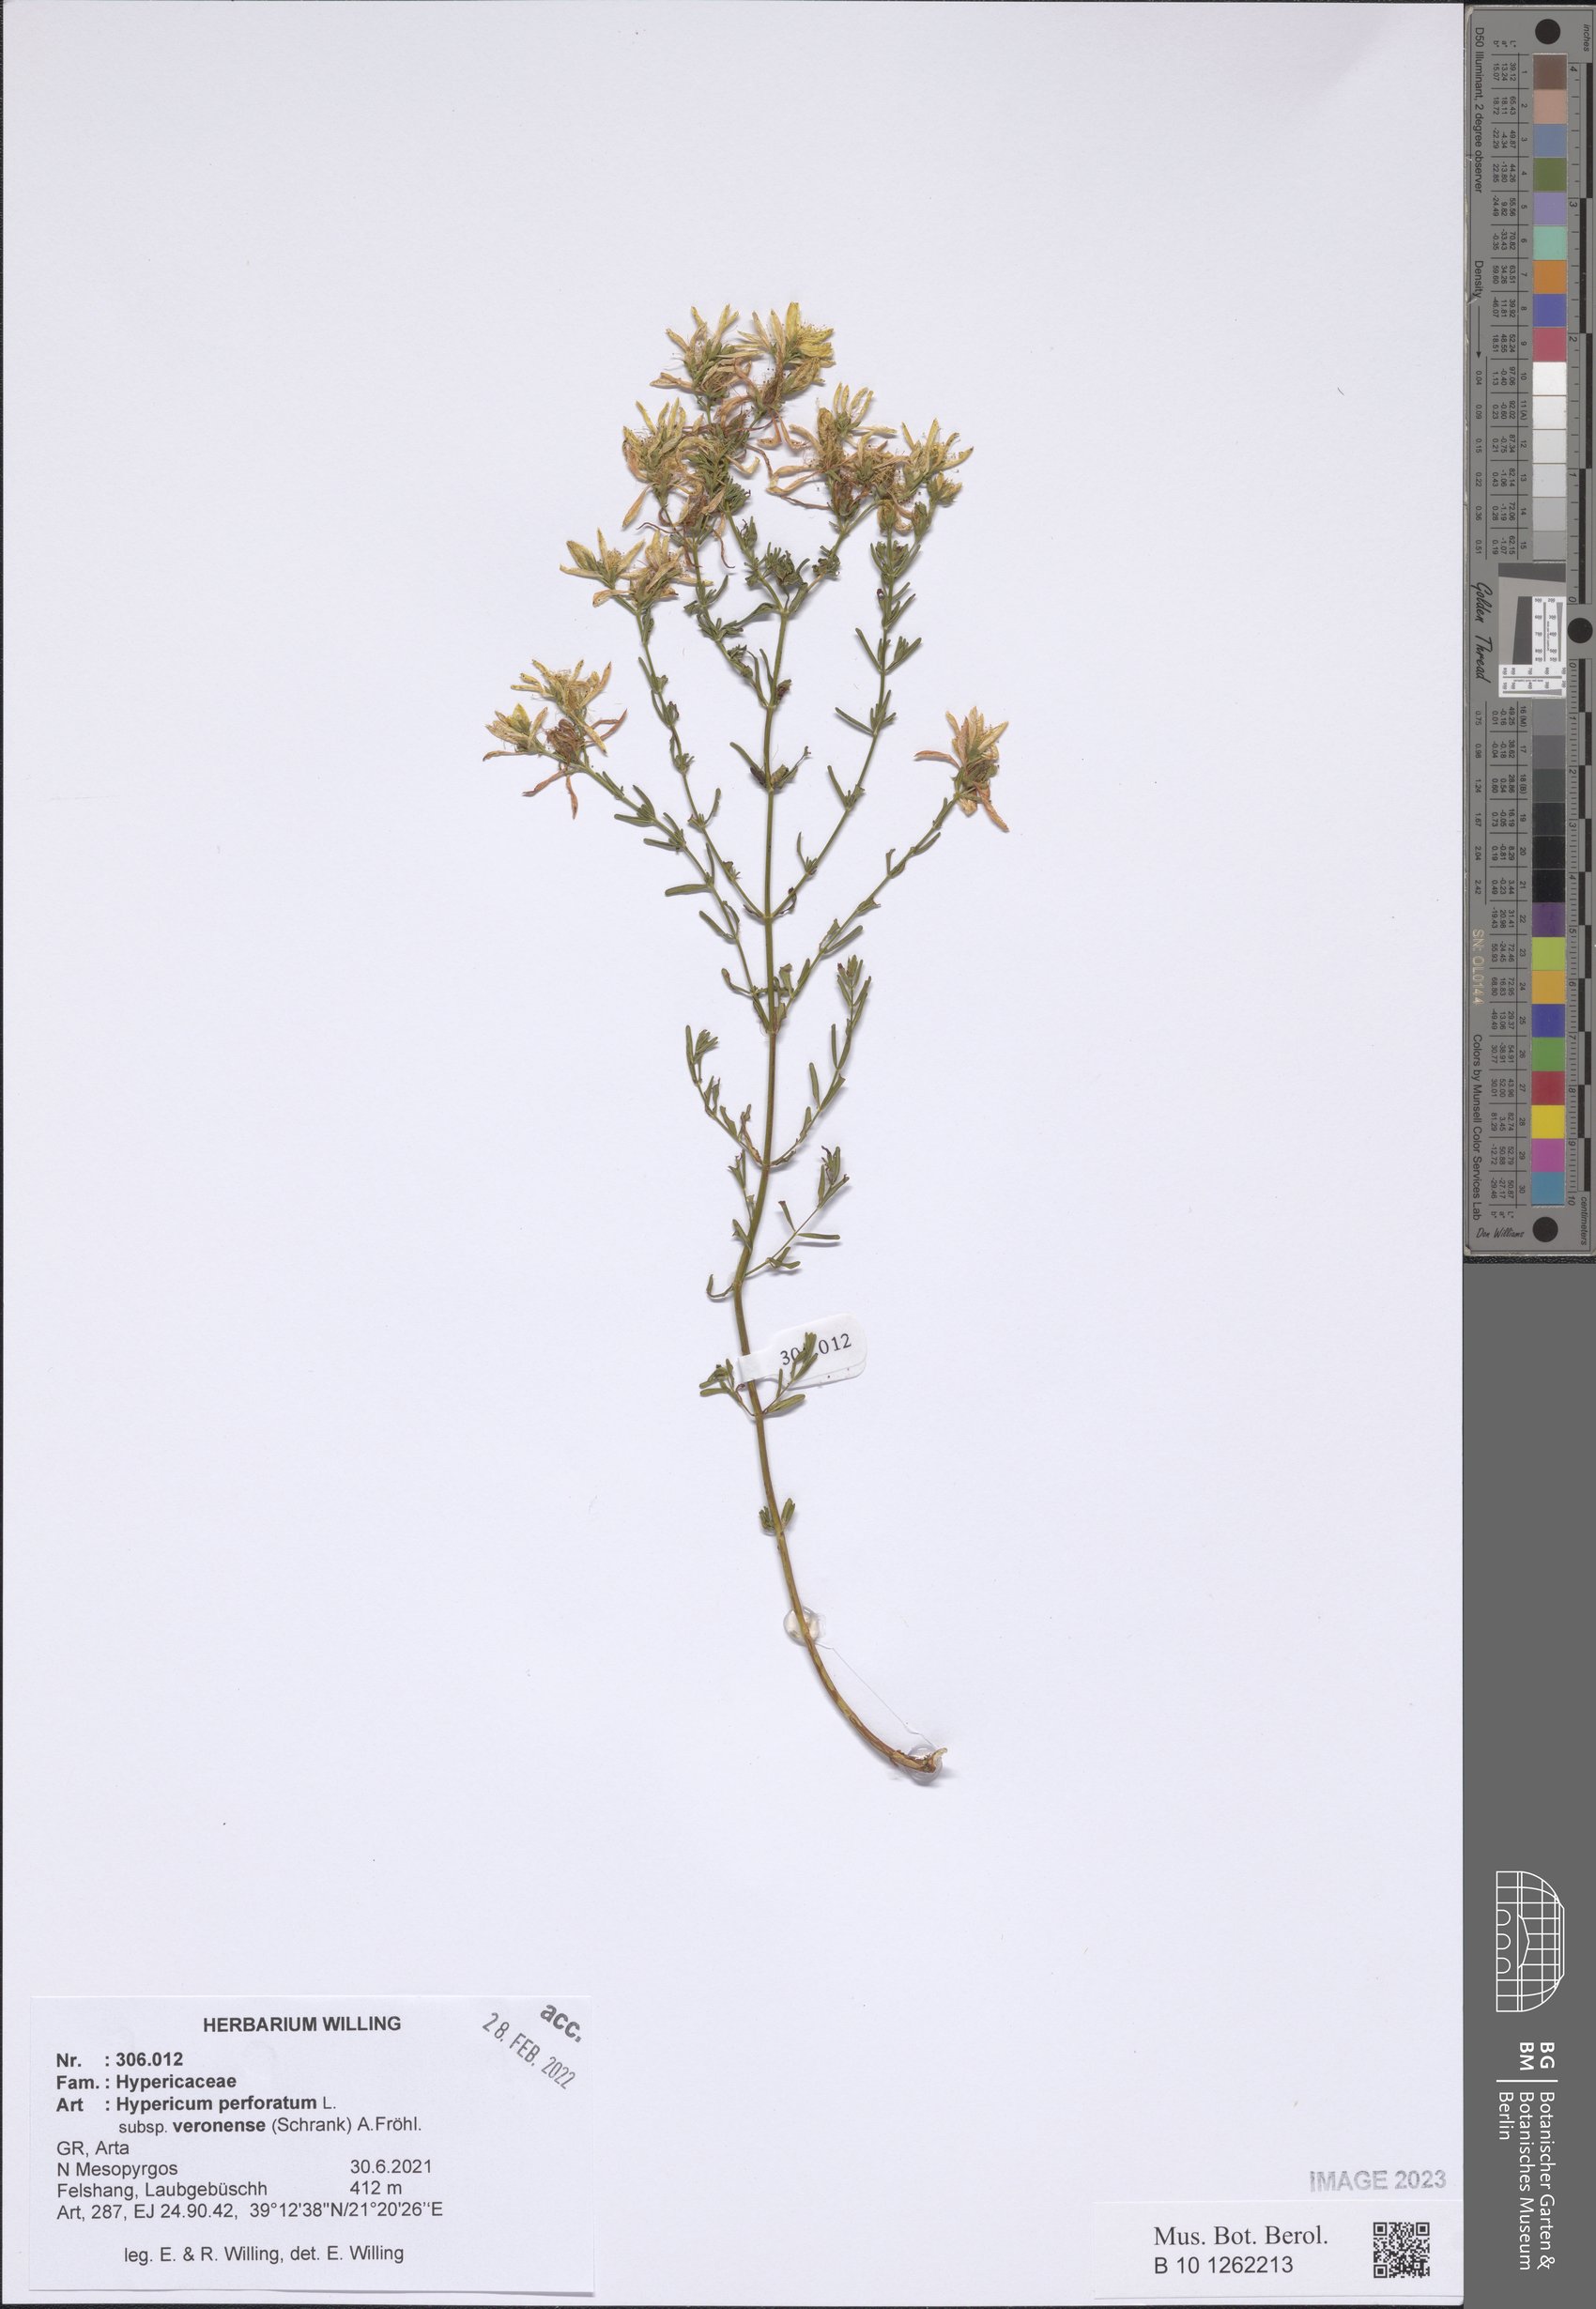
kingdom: Plantae
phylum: Tracheophyta
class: Magnoliopsida
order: Malpighiales
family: Hypericaceae
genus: Hypericum
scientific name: Hypericum veronense
